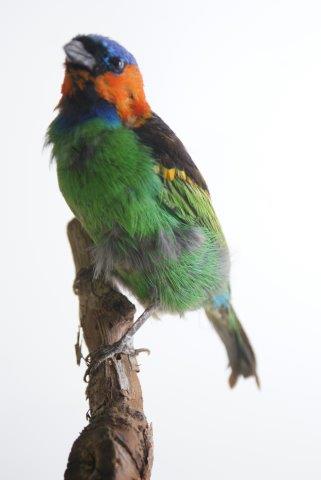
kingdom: Animalia
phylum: Chordata
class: Aves
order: Passeriformes
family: Thraupidae
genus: Tangara
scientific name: Tangara cyanocephala
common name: Red-necked tanager
